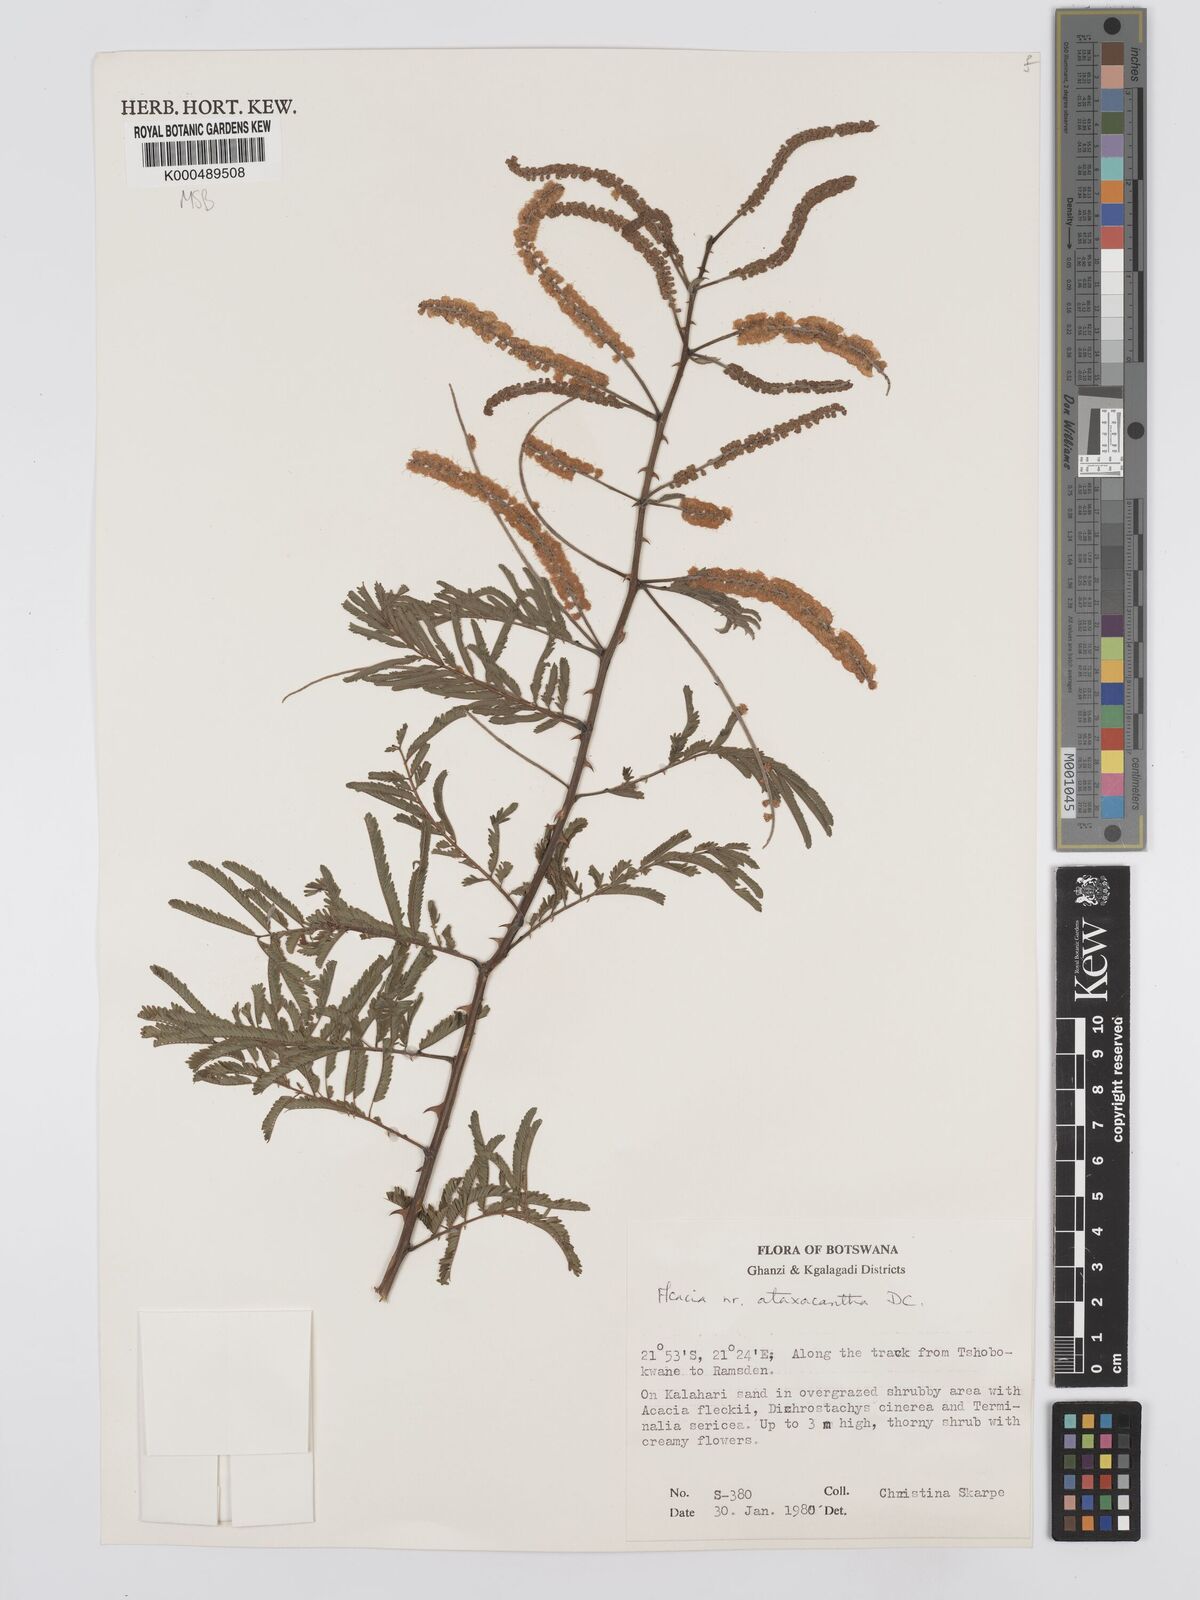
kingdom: Plantae
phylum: Tracheophyta
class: Magnoliopsida
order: Fabales
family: Fabaceae
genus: Senegalia
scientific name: Senegalia ataxacantha
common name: Flame acacia
